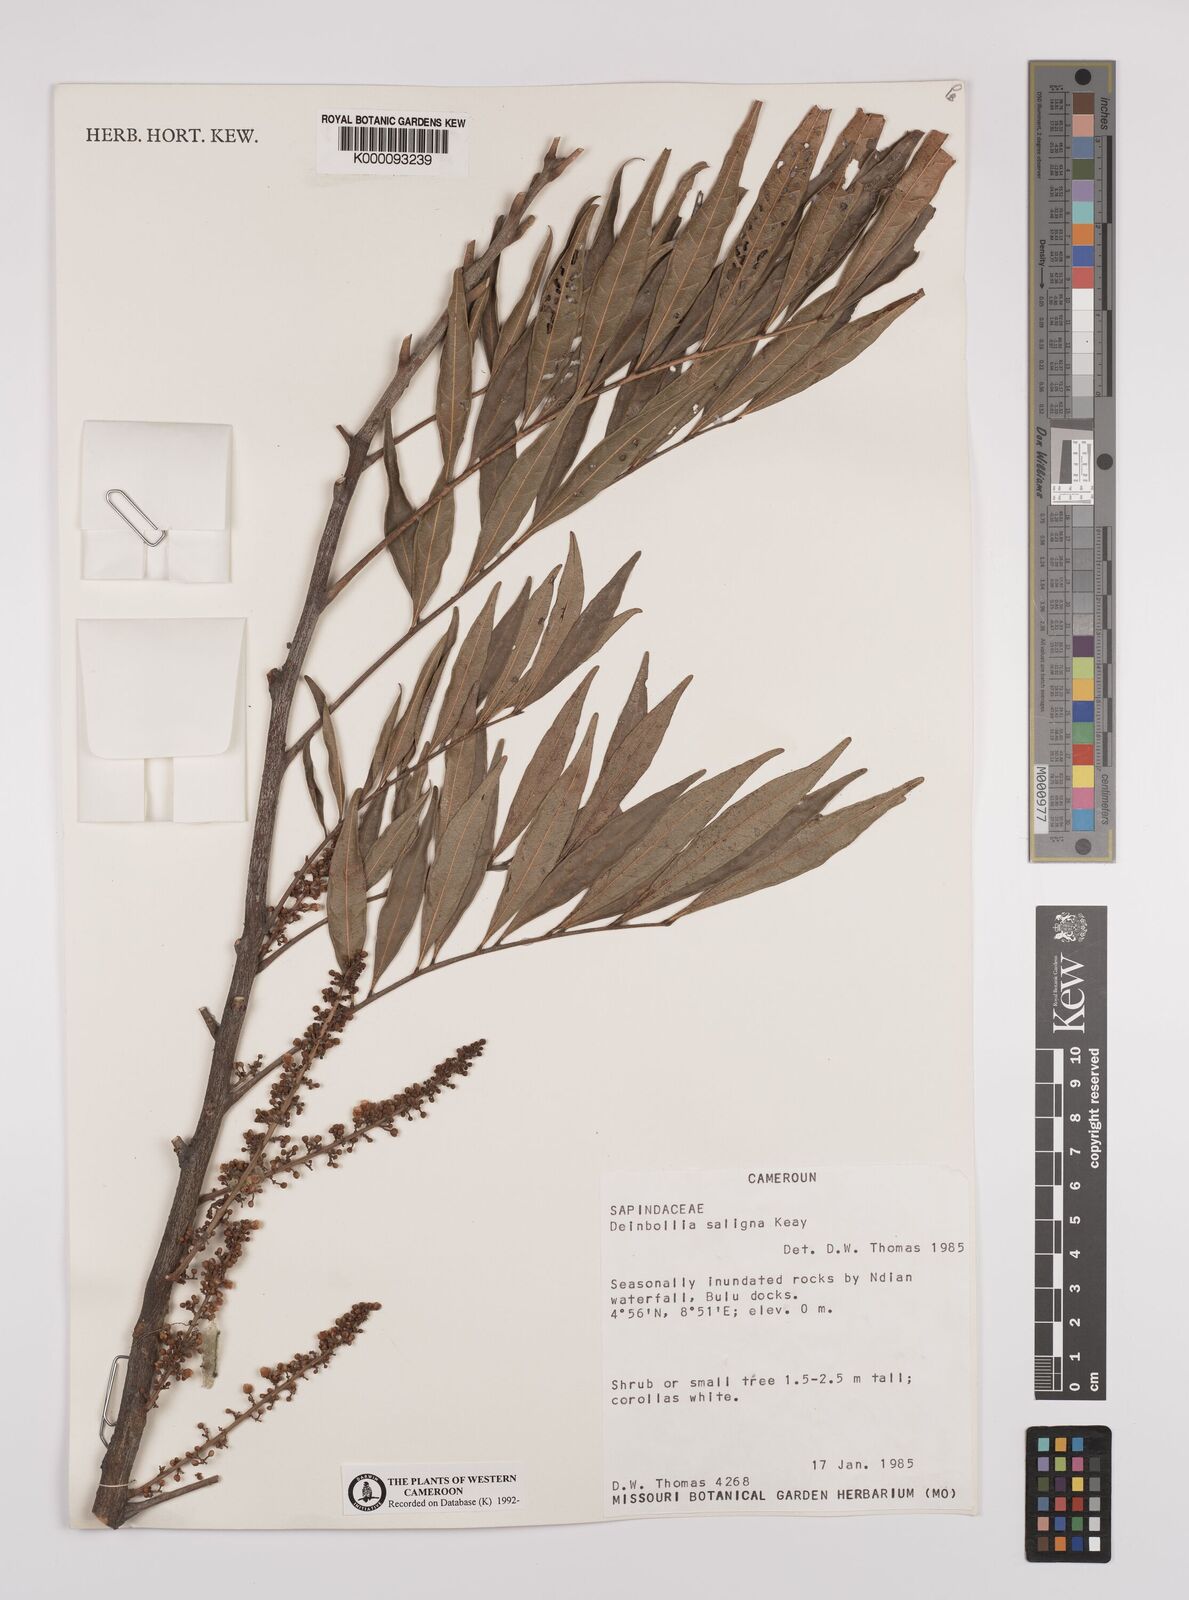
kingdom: Plantae
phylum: Tracheophyta
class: Magnoliopsida
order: Sapindales
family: Sapindaceae
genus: Deinbollia
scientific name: Deinbollia saligna
